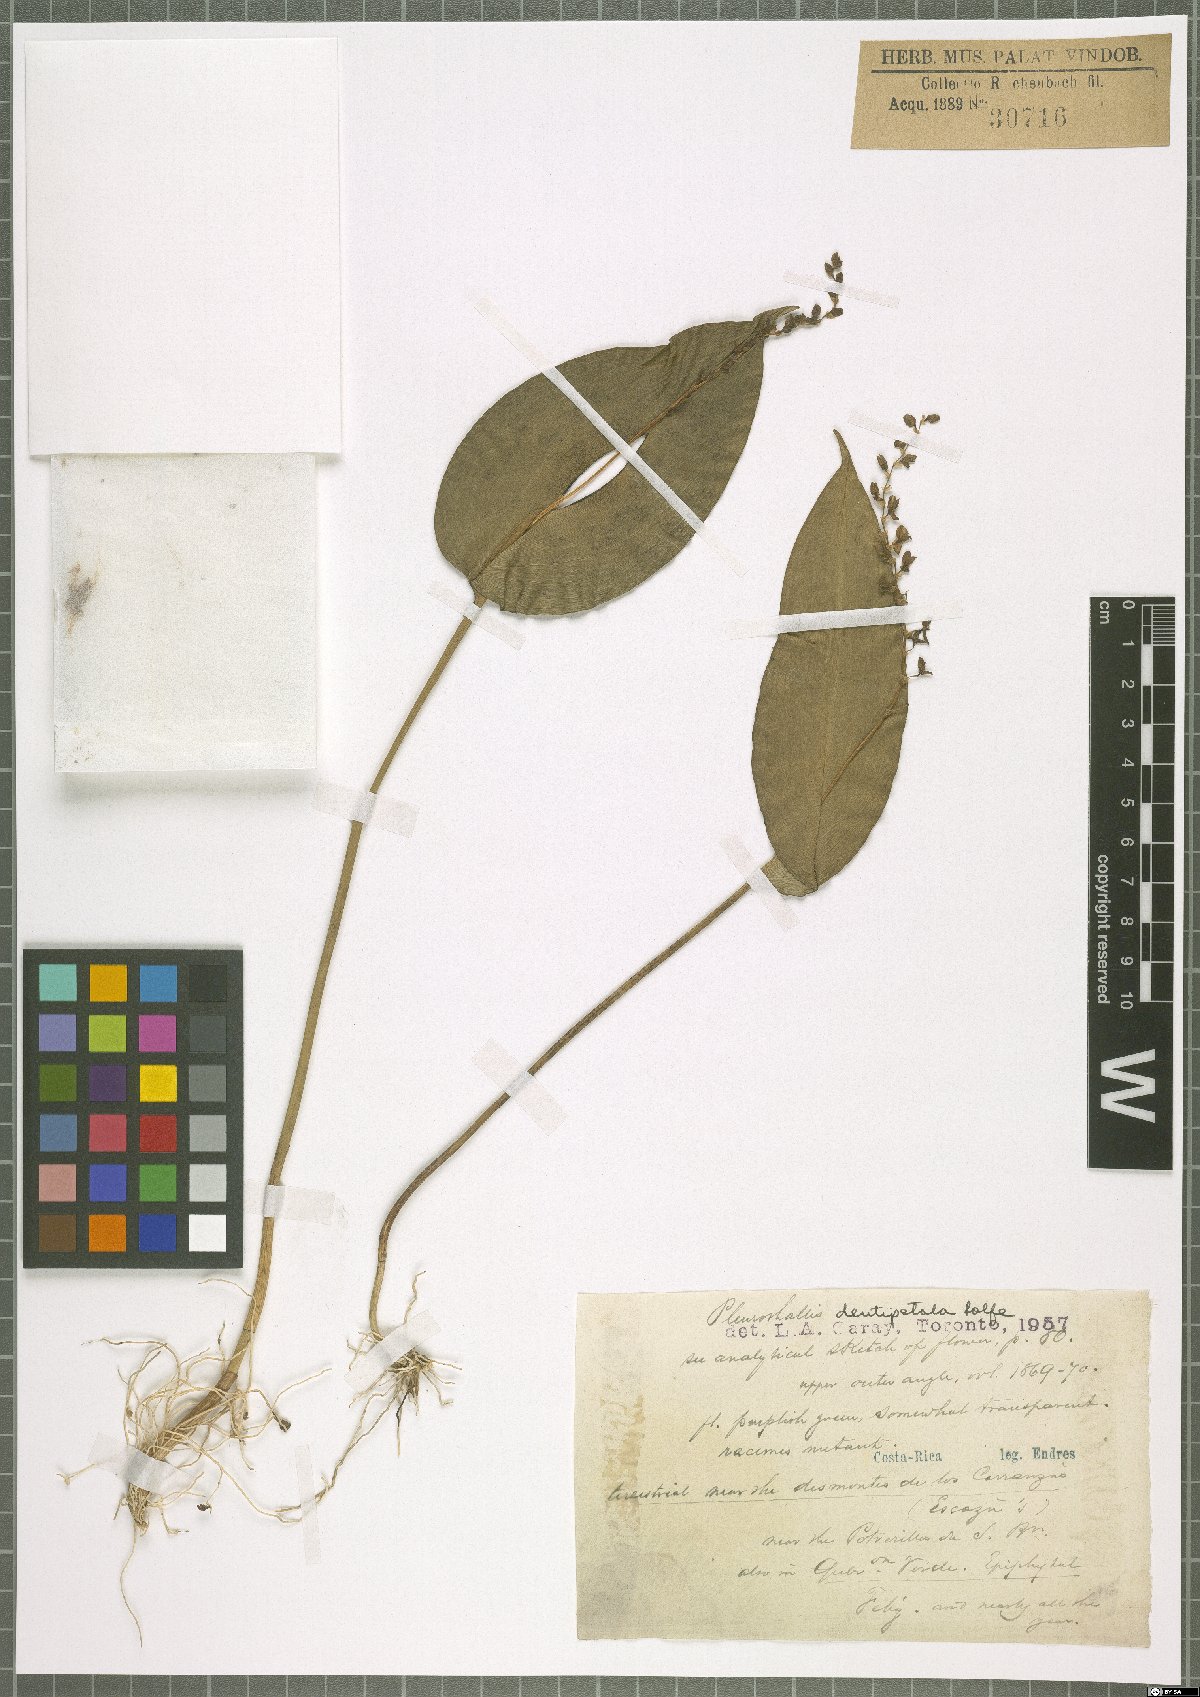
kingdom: Plantae
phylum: Tracheophyta
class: Liliopsida
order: Asparagales
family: Orchidaceae
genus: Pleurothallis
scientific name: Pleurothallis dentipetala
